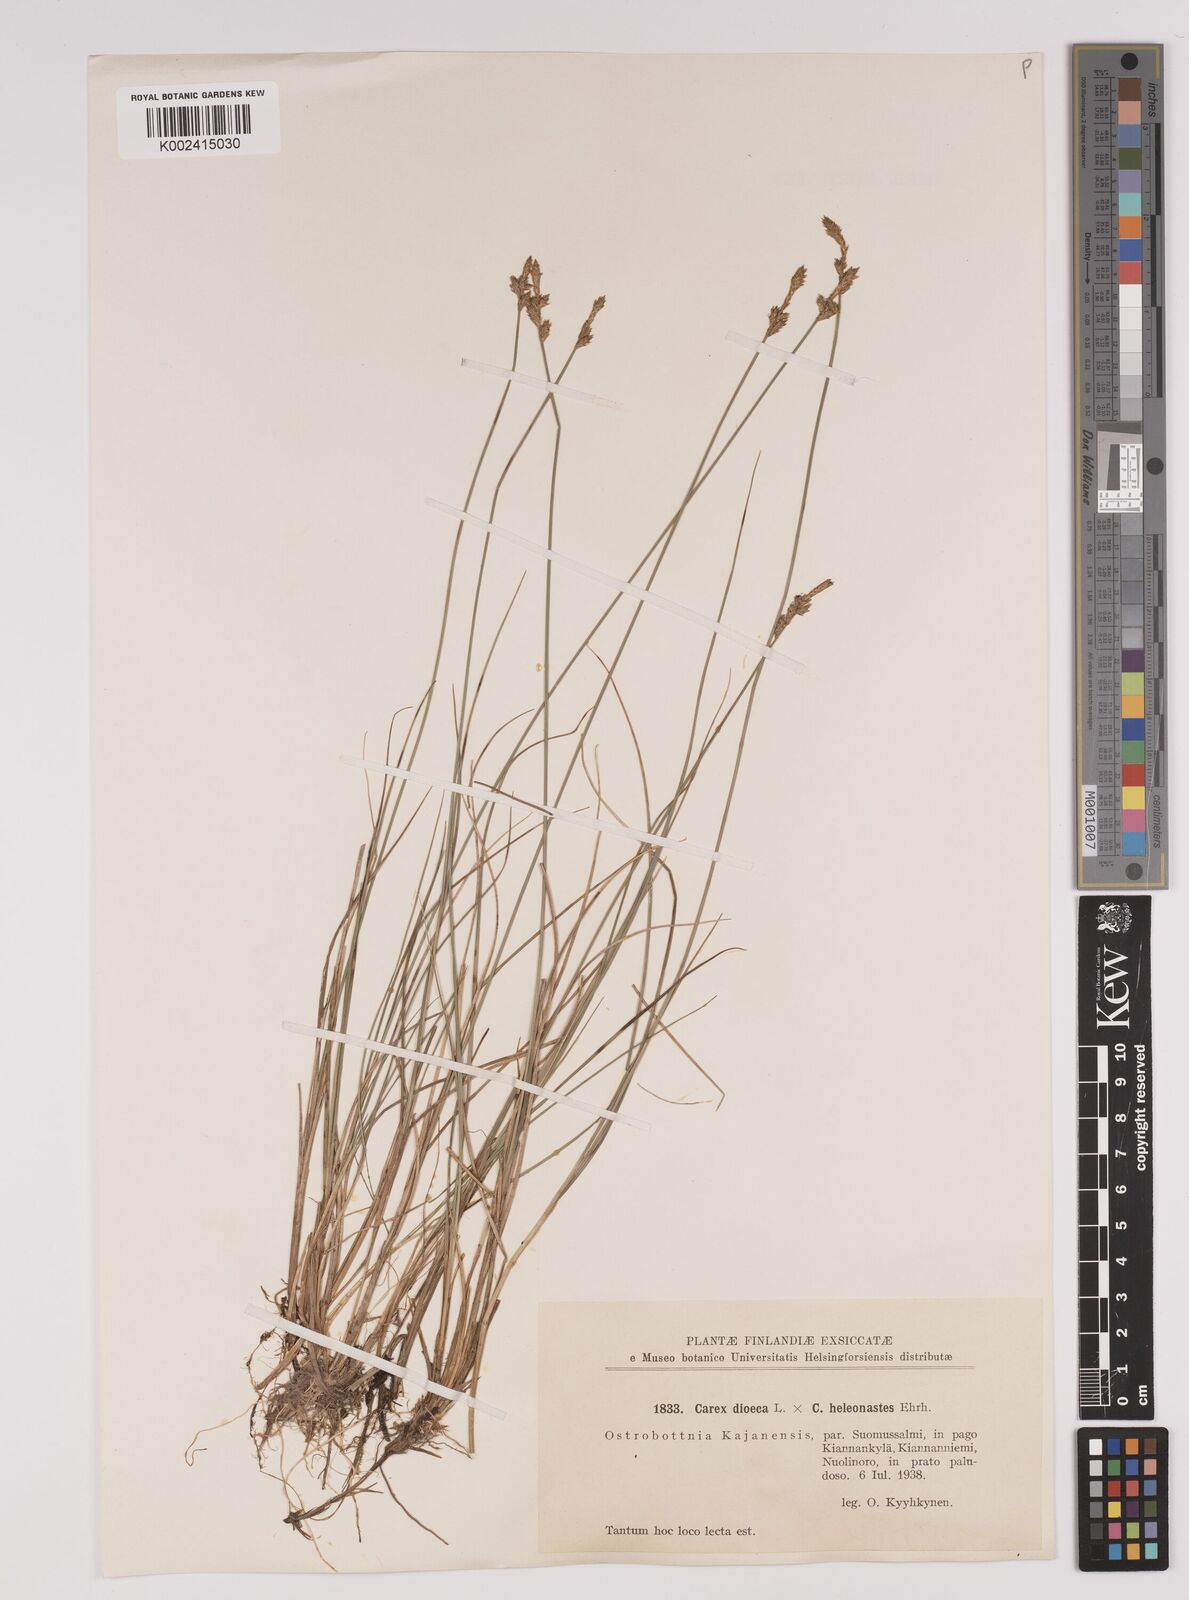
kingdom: Plantae
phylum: Tracheophyta
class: Liliopsida
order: Poales
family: Cyperaceae
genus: Carex
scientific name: Carex dioica
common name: Dioecious sedge
